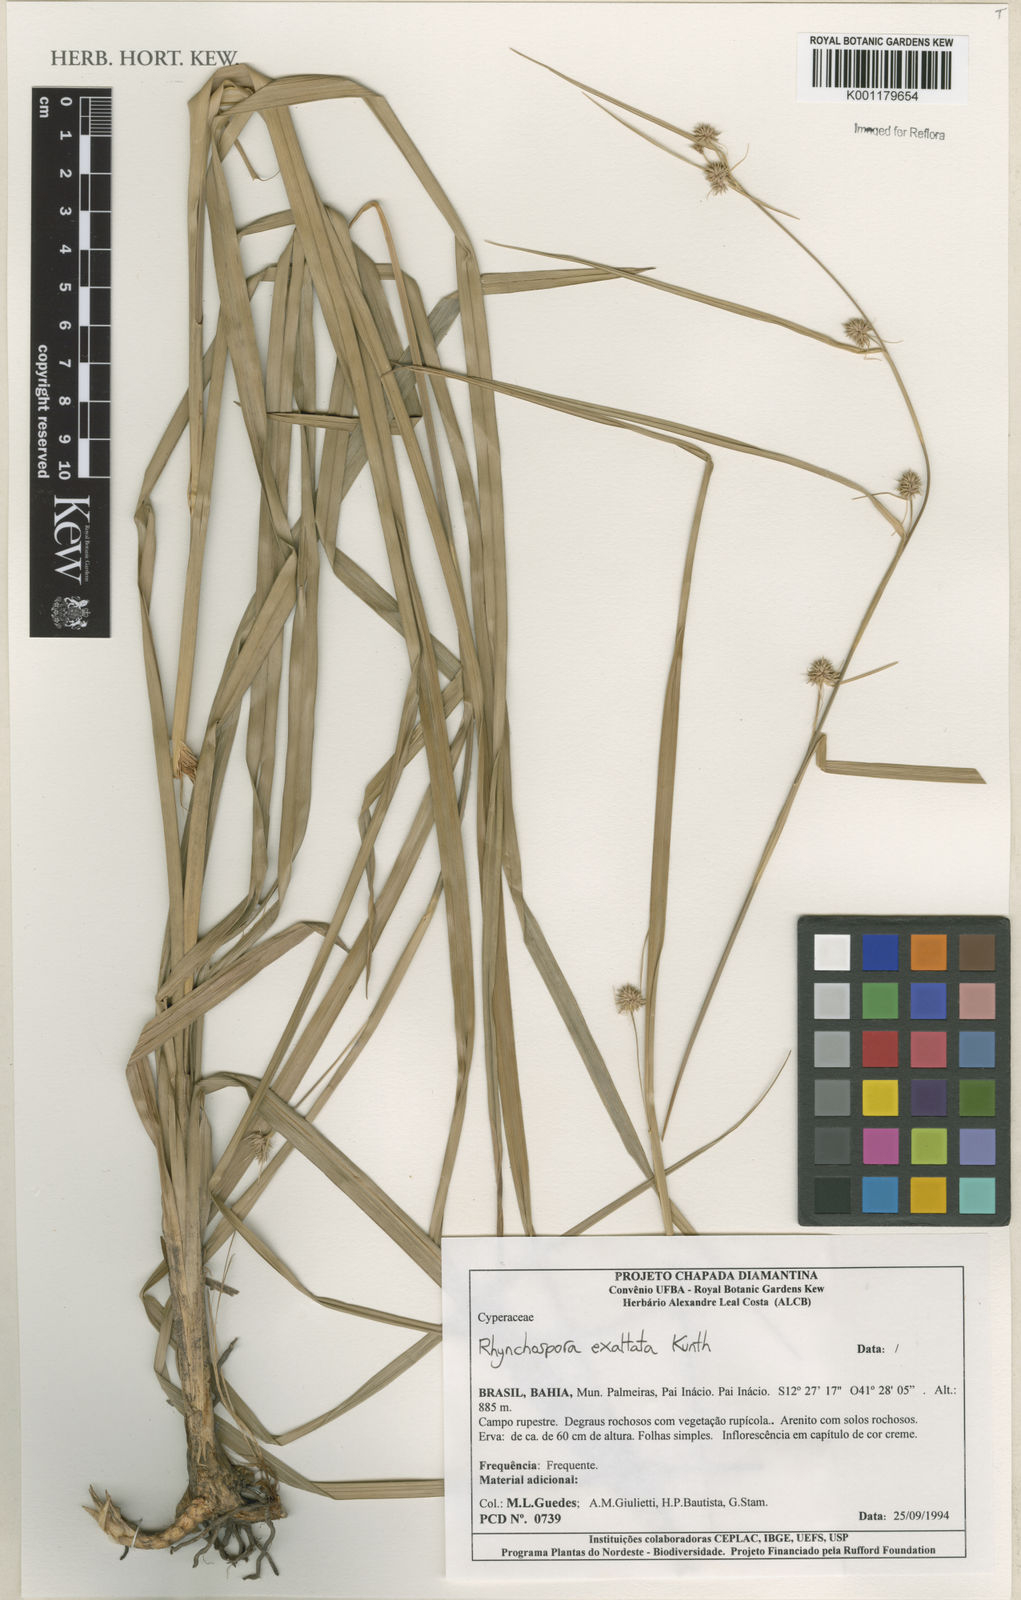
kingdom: Plantae
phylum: Tracheophyta
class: Liliopsida
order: Poales
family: Cyperaceae
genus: Rhynchospora
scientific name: Rhynchospora exaltata
